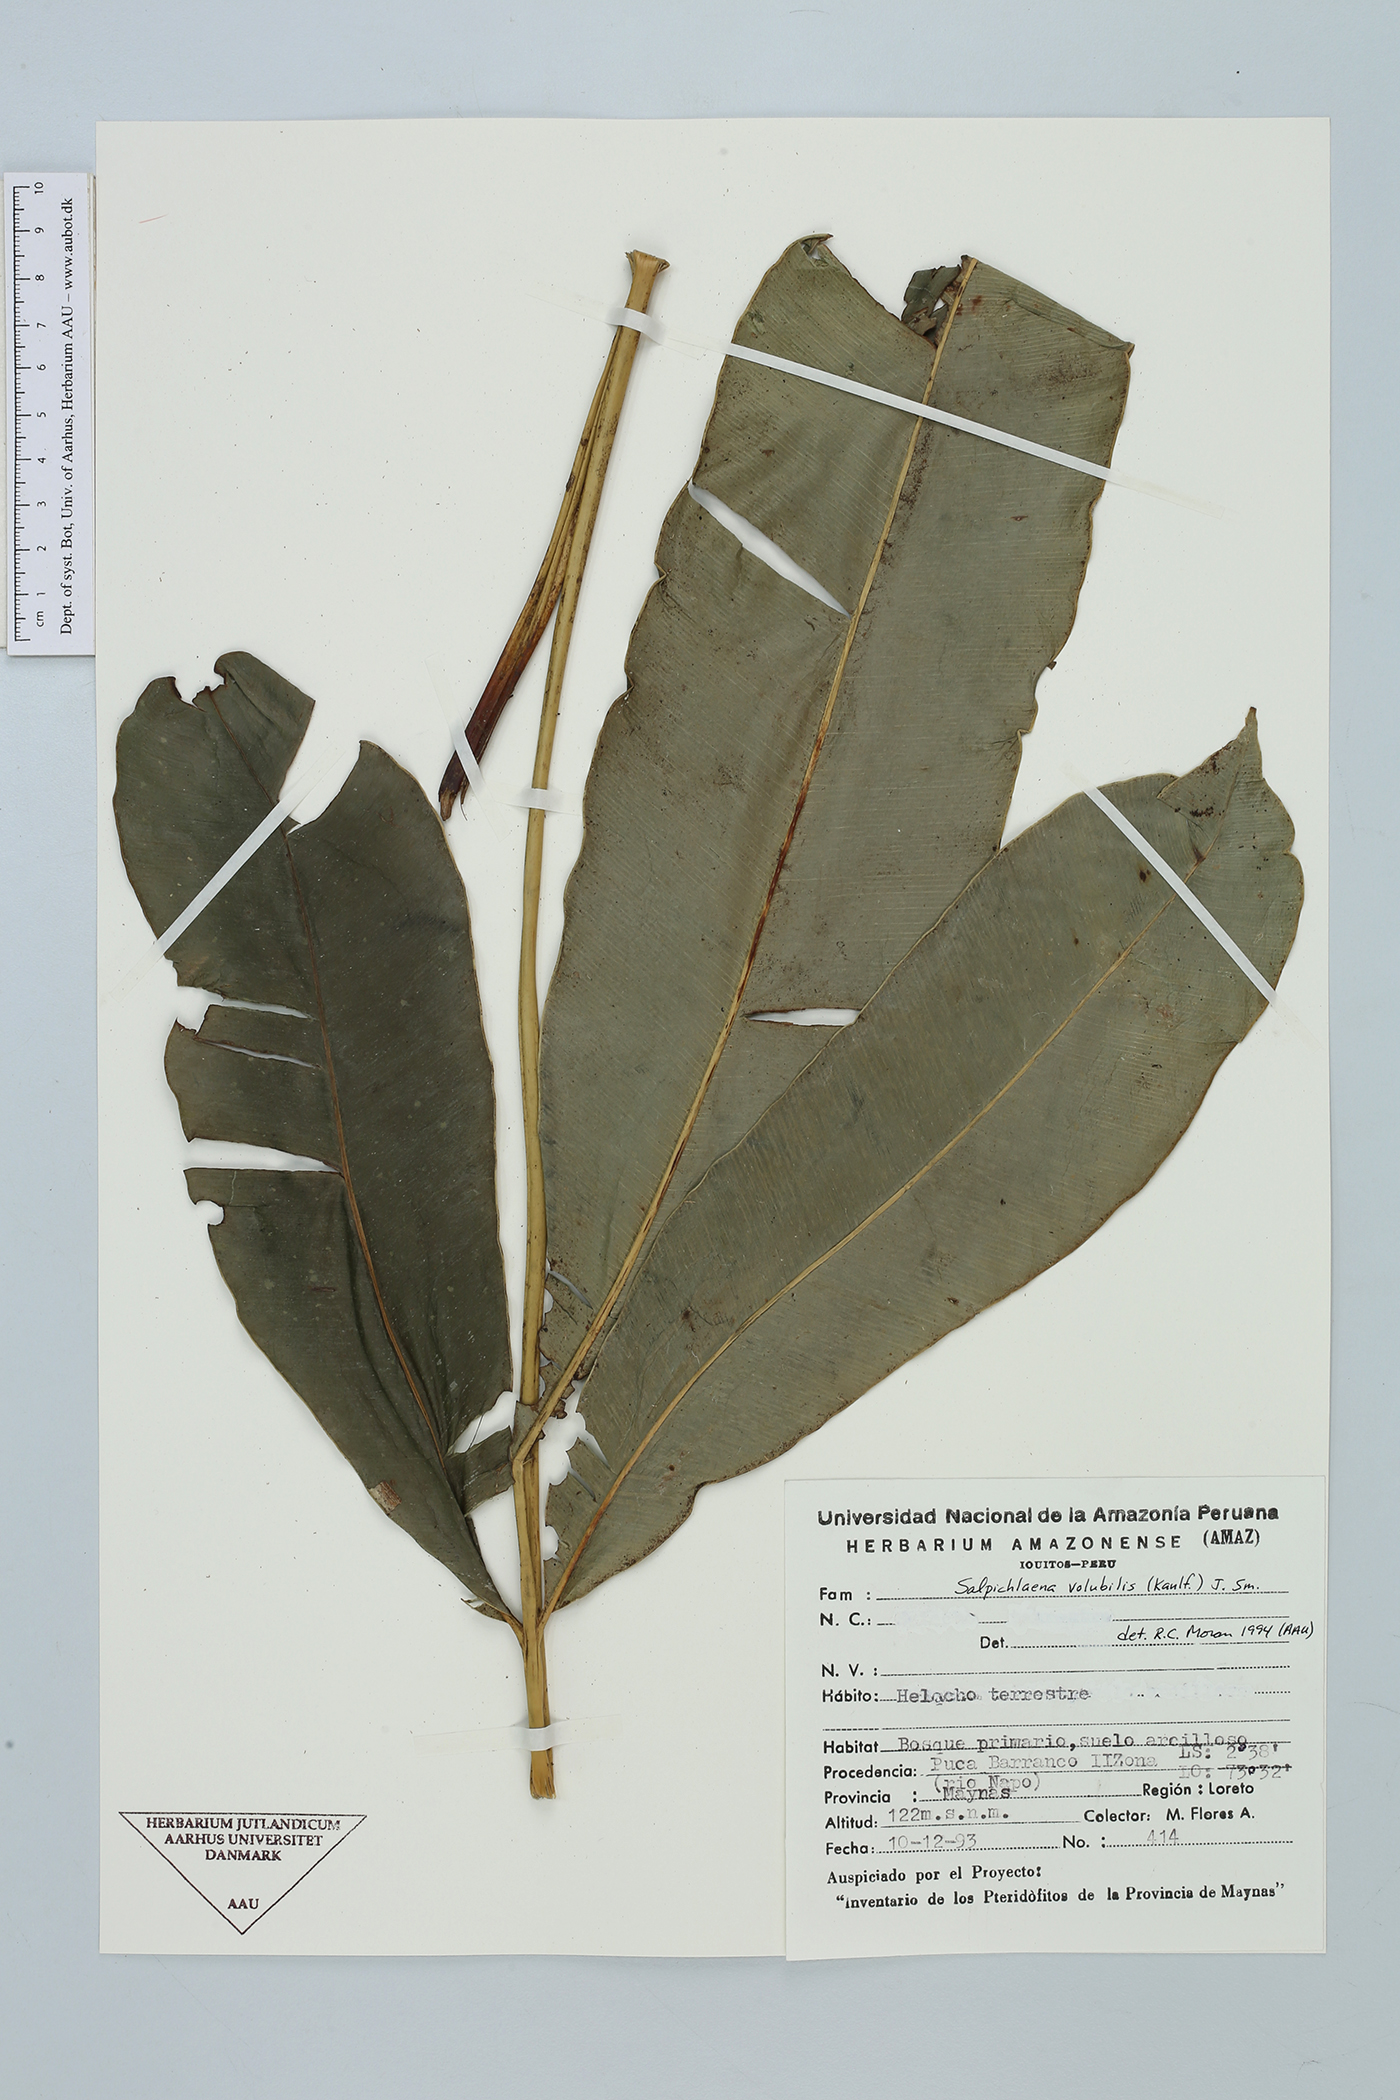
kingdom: Plantae
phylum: Tracheophyta
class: Polypodiopsida
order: Polypodiales
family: Blechnaceae
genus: Salpichlaena
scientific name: Salpichlaena volubilis
